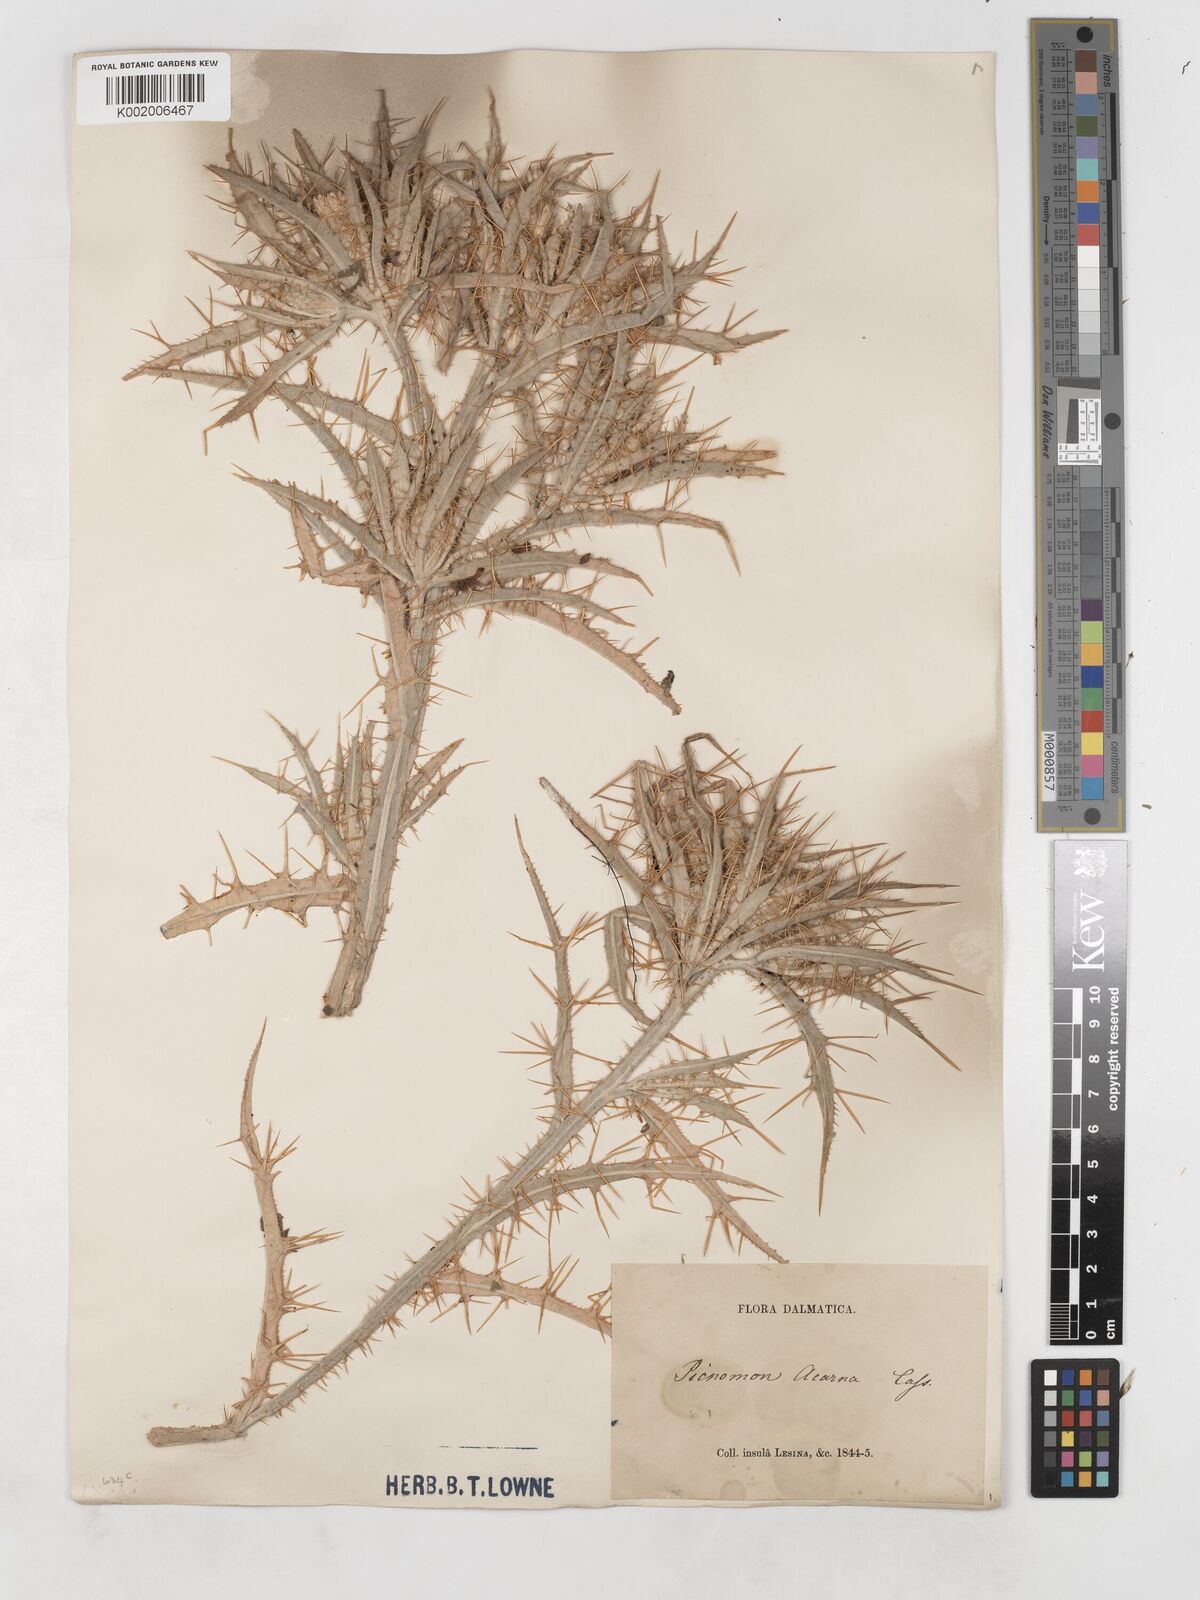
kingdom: Plantae
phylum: Tracheophyta
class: Magnoliopsida
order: Asterales
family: Asteraceae
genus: Picnomon
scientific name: Picnomon acarna
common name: Soldier thistle
